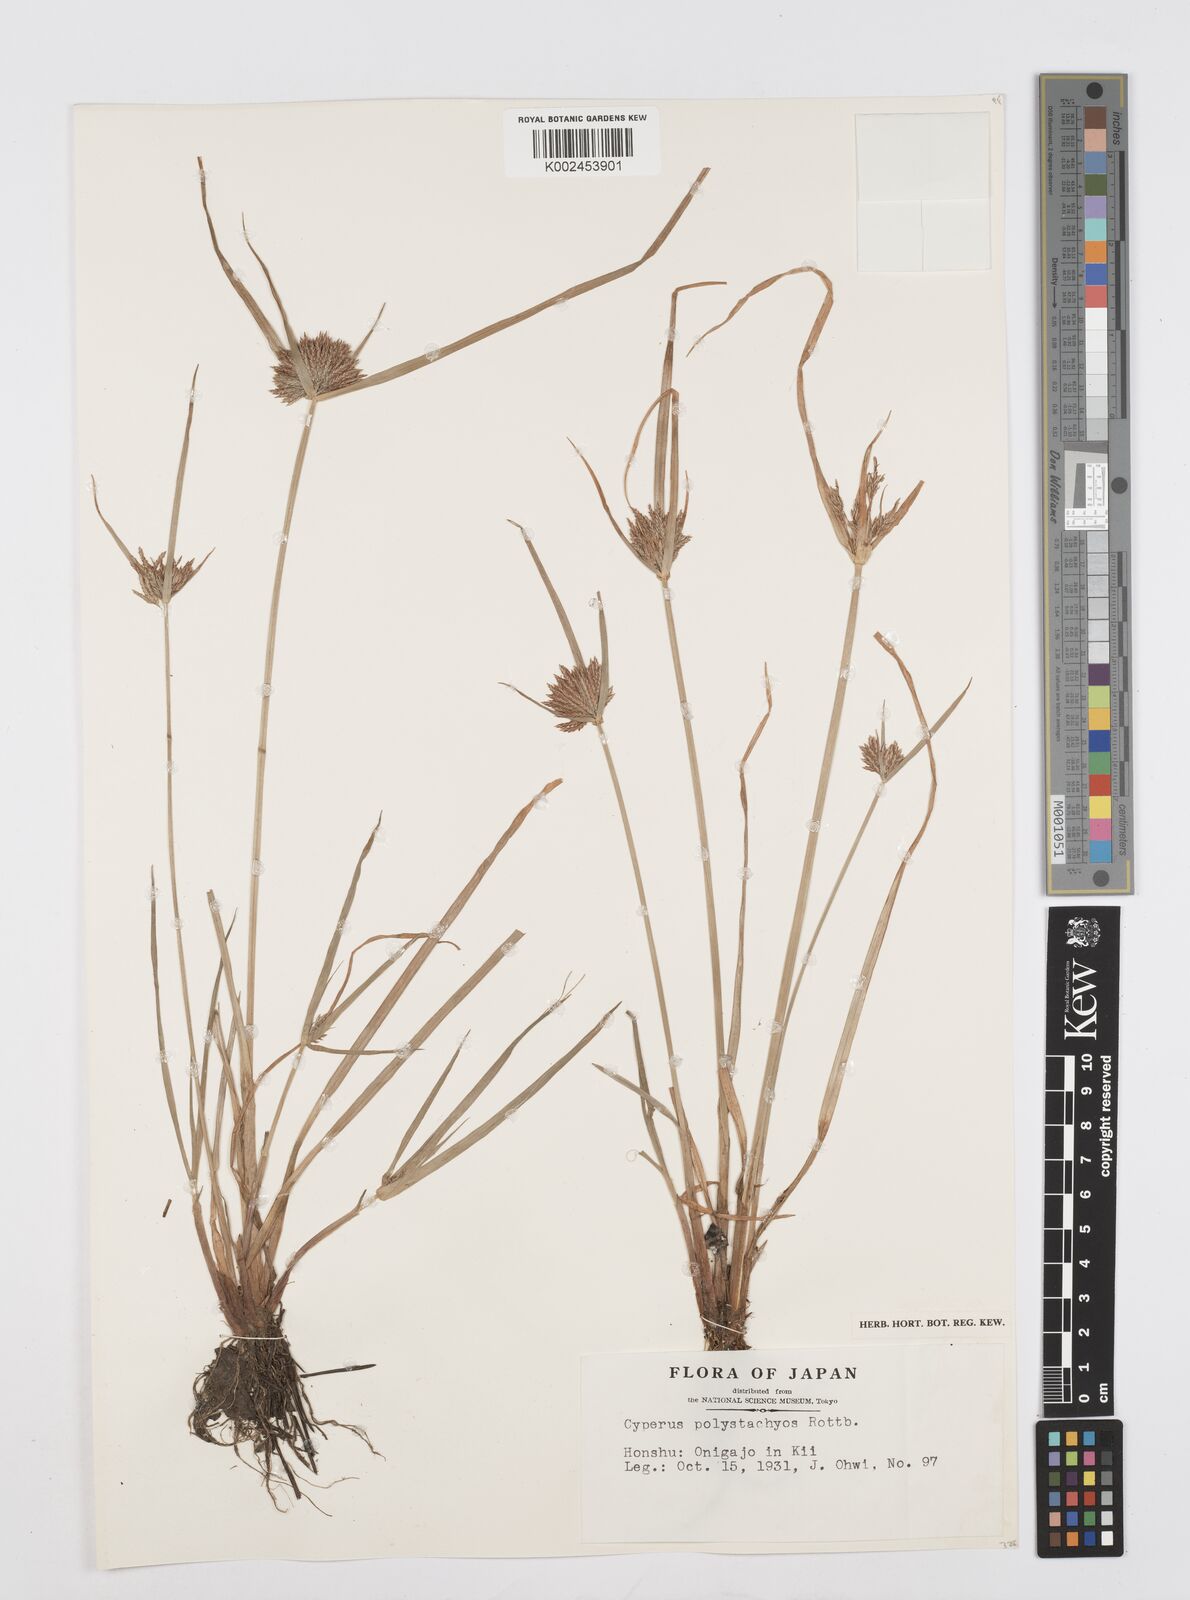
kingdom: Plantae
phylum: Tracheophyta
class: Liliopsida
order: Poales
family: Cyperaceae
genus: Cyperus
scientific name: Cyperus polystachyos
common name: Bunchy flat sedge
